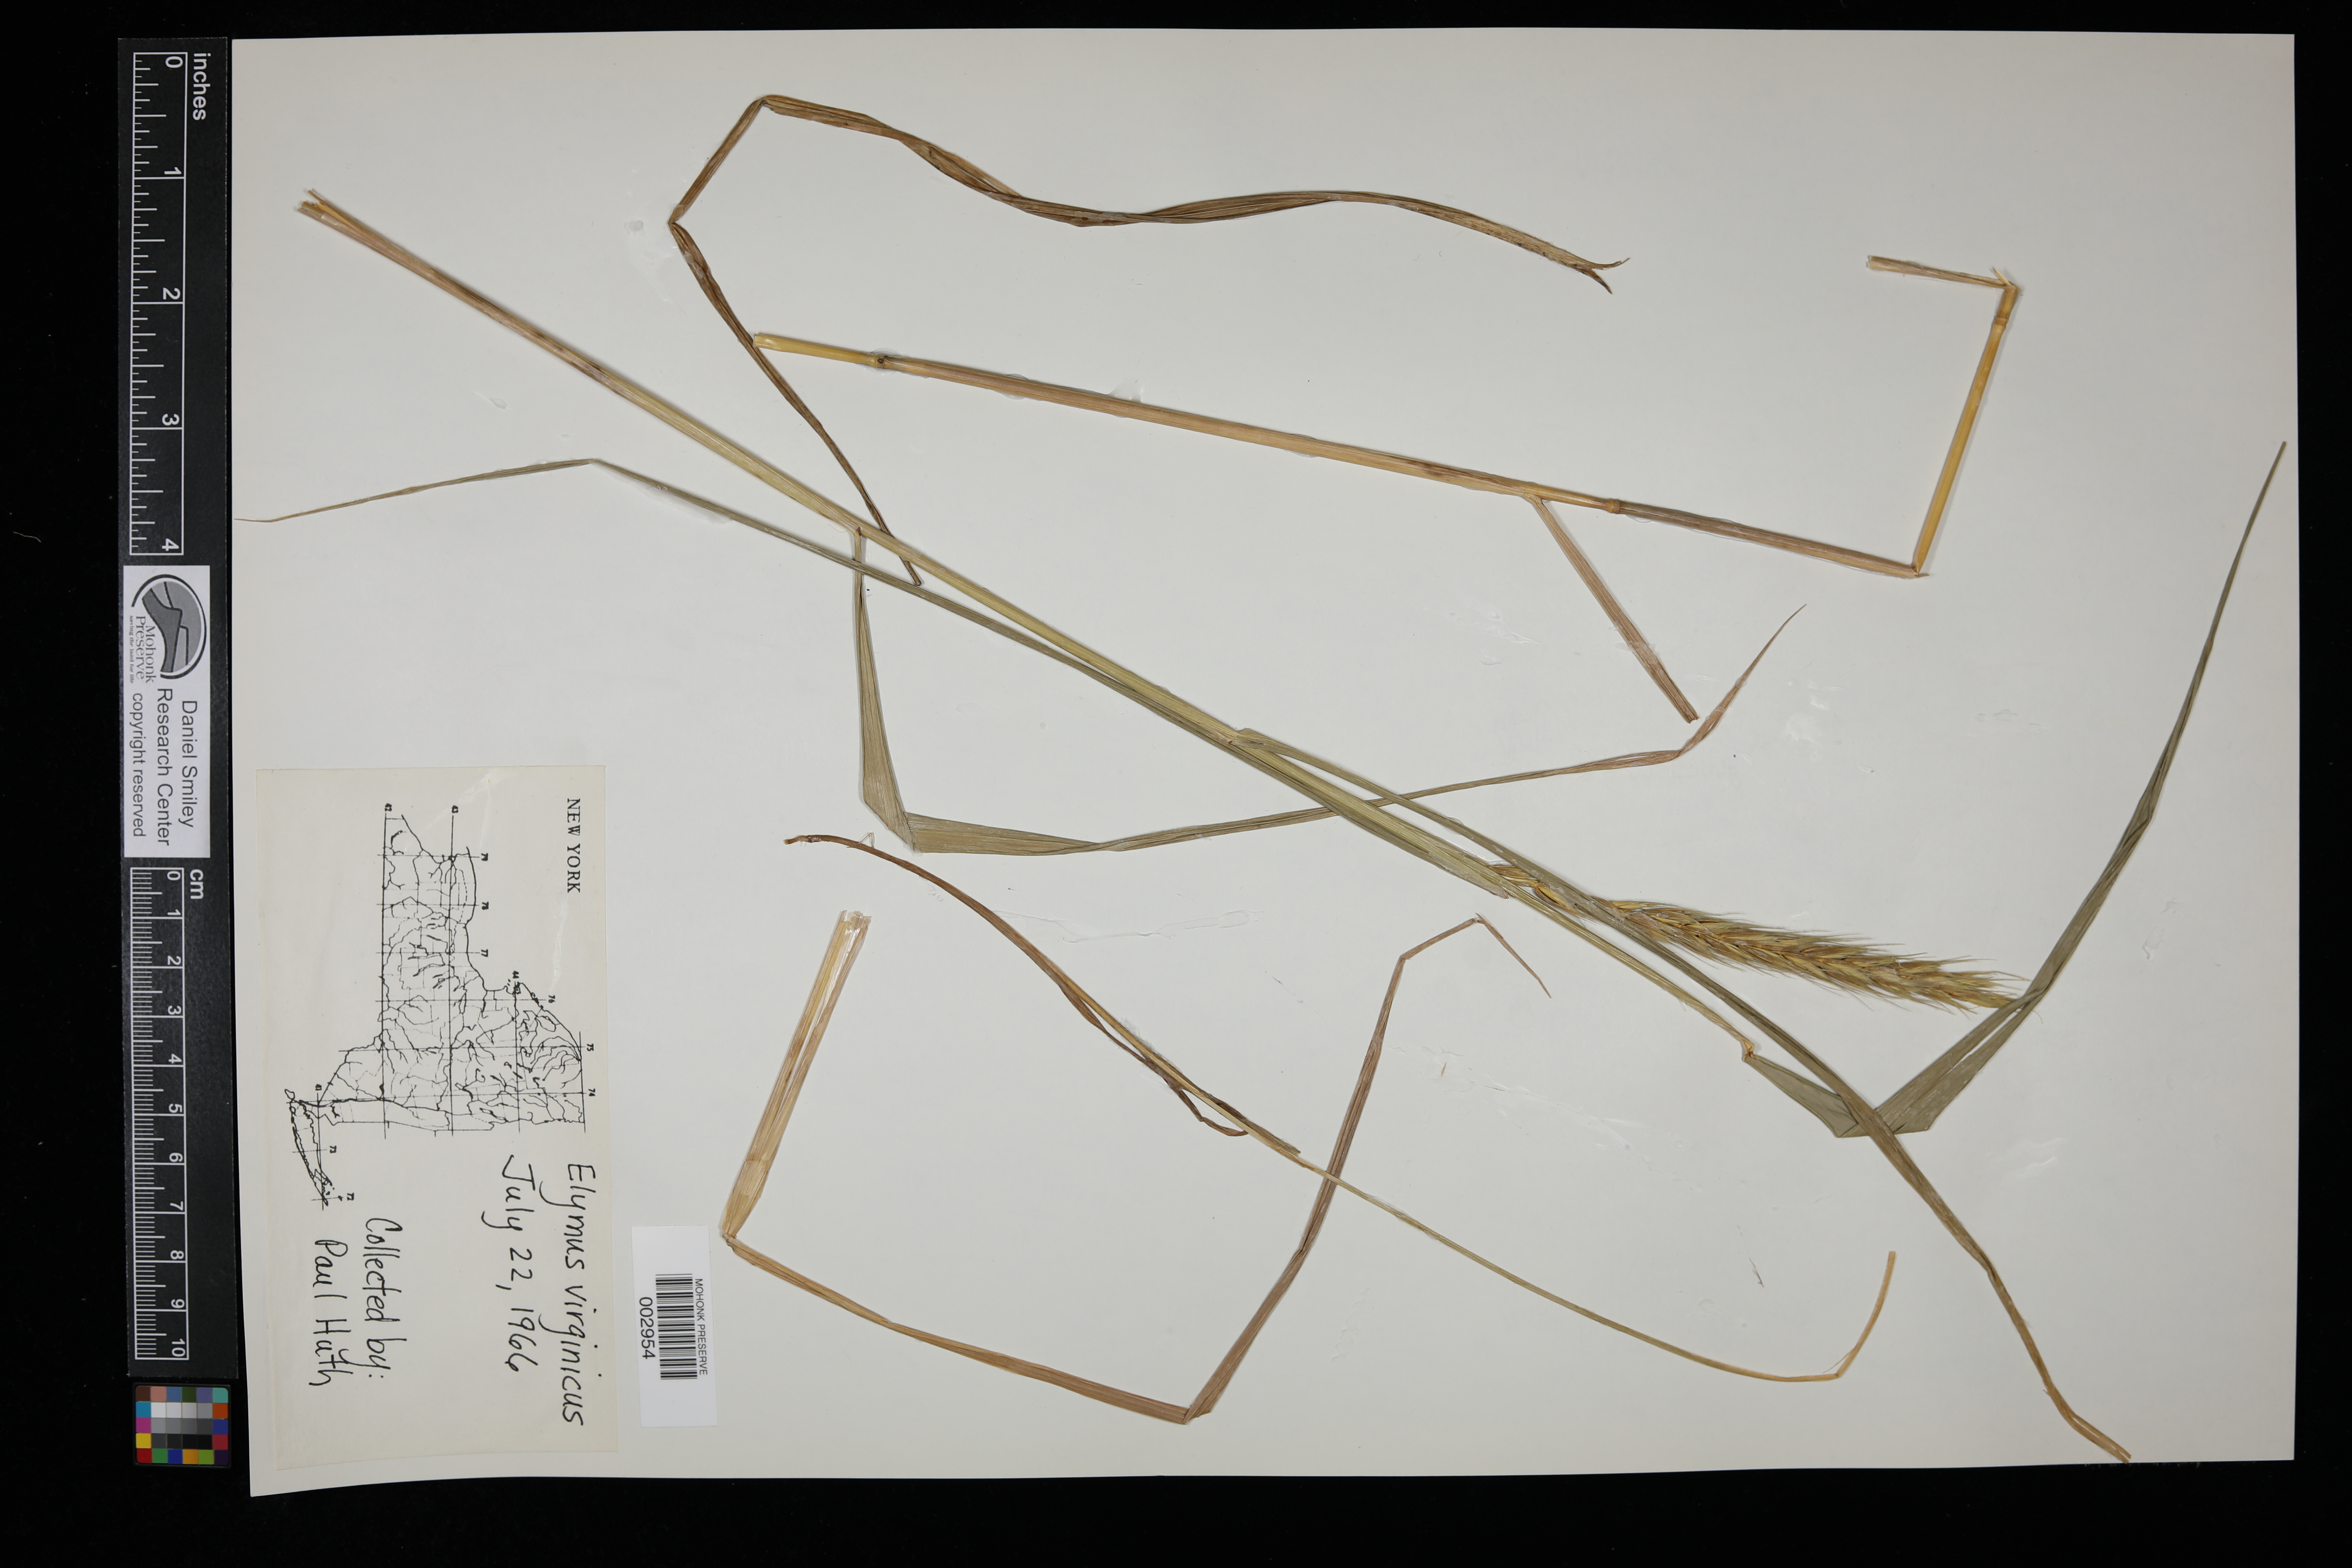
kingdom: Plantae
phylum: Tracheophyta
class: Liliopsida
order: Poales
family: Poaceae
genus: Elymus
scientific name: Elymus virginicus
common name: Common eastern wildrye
